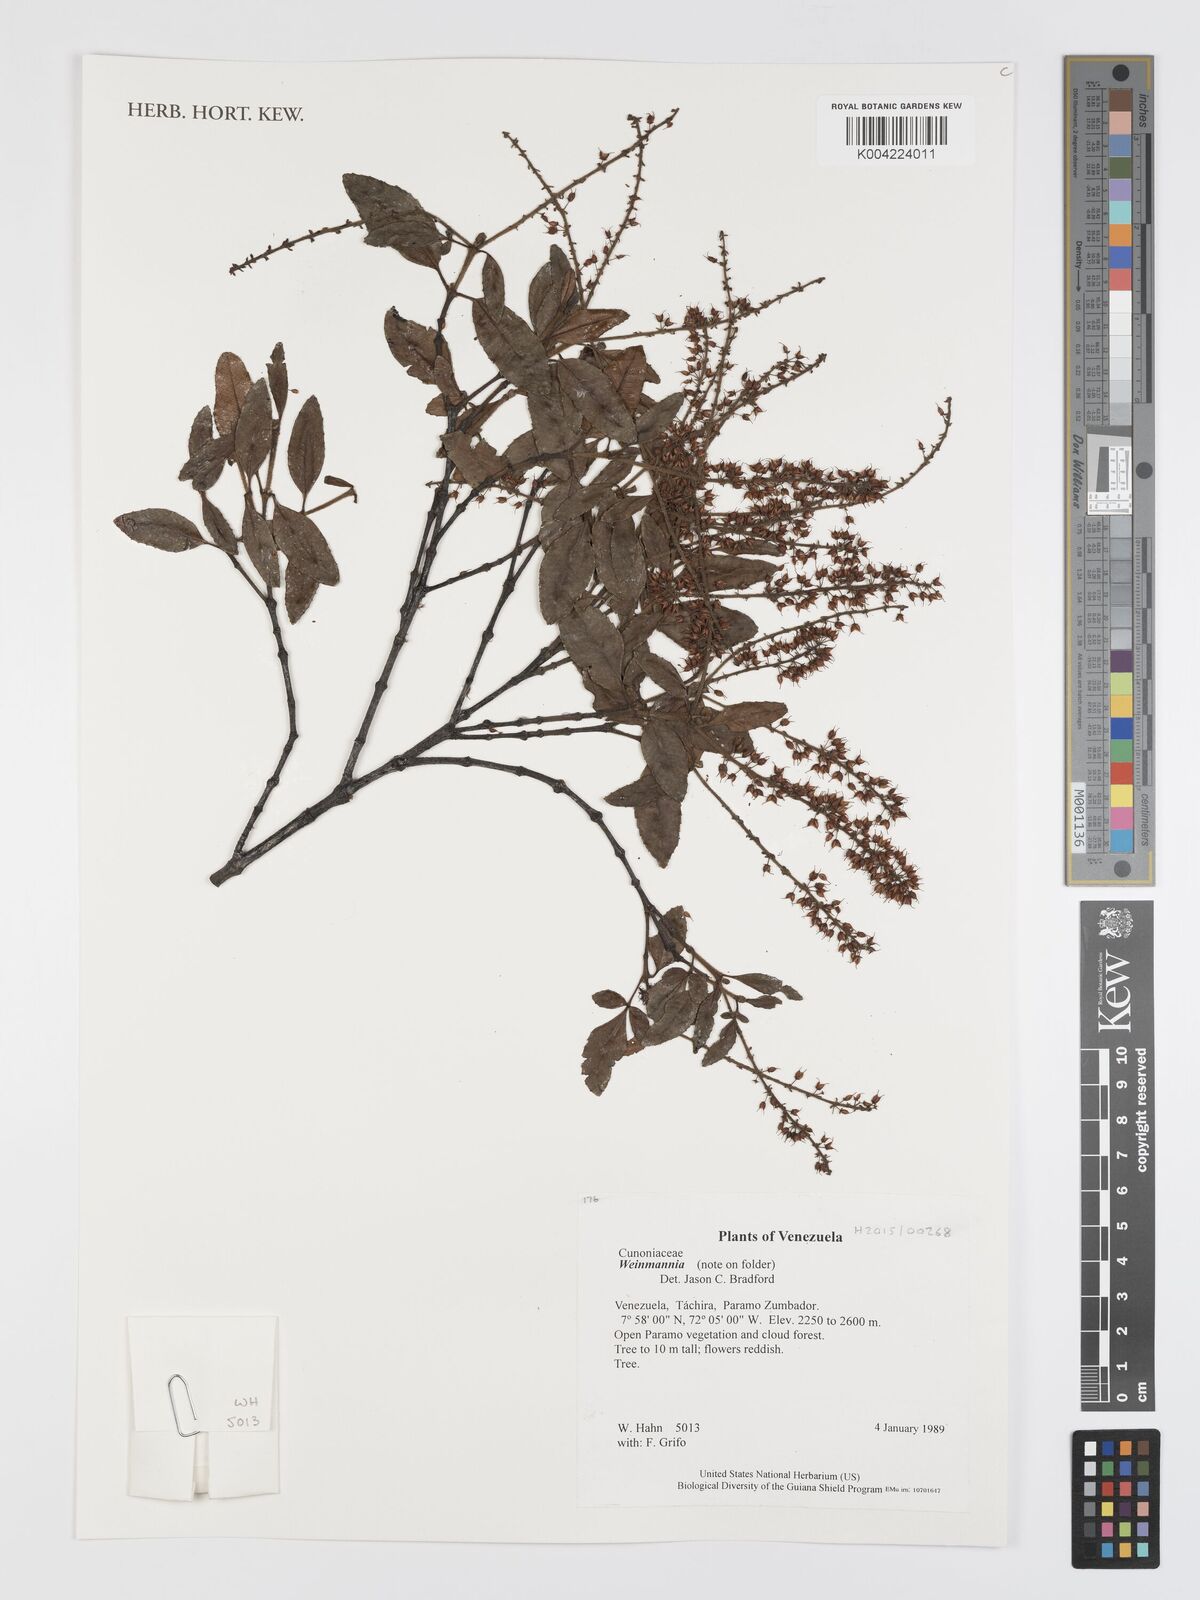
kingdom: Plantae
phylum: Tracheophyta
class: Magnoliopsida
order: Oxalidales
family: Cunoniaceae
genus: Weinmannia
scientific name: Weinmannia
